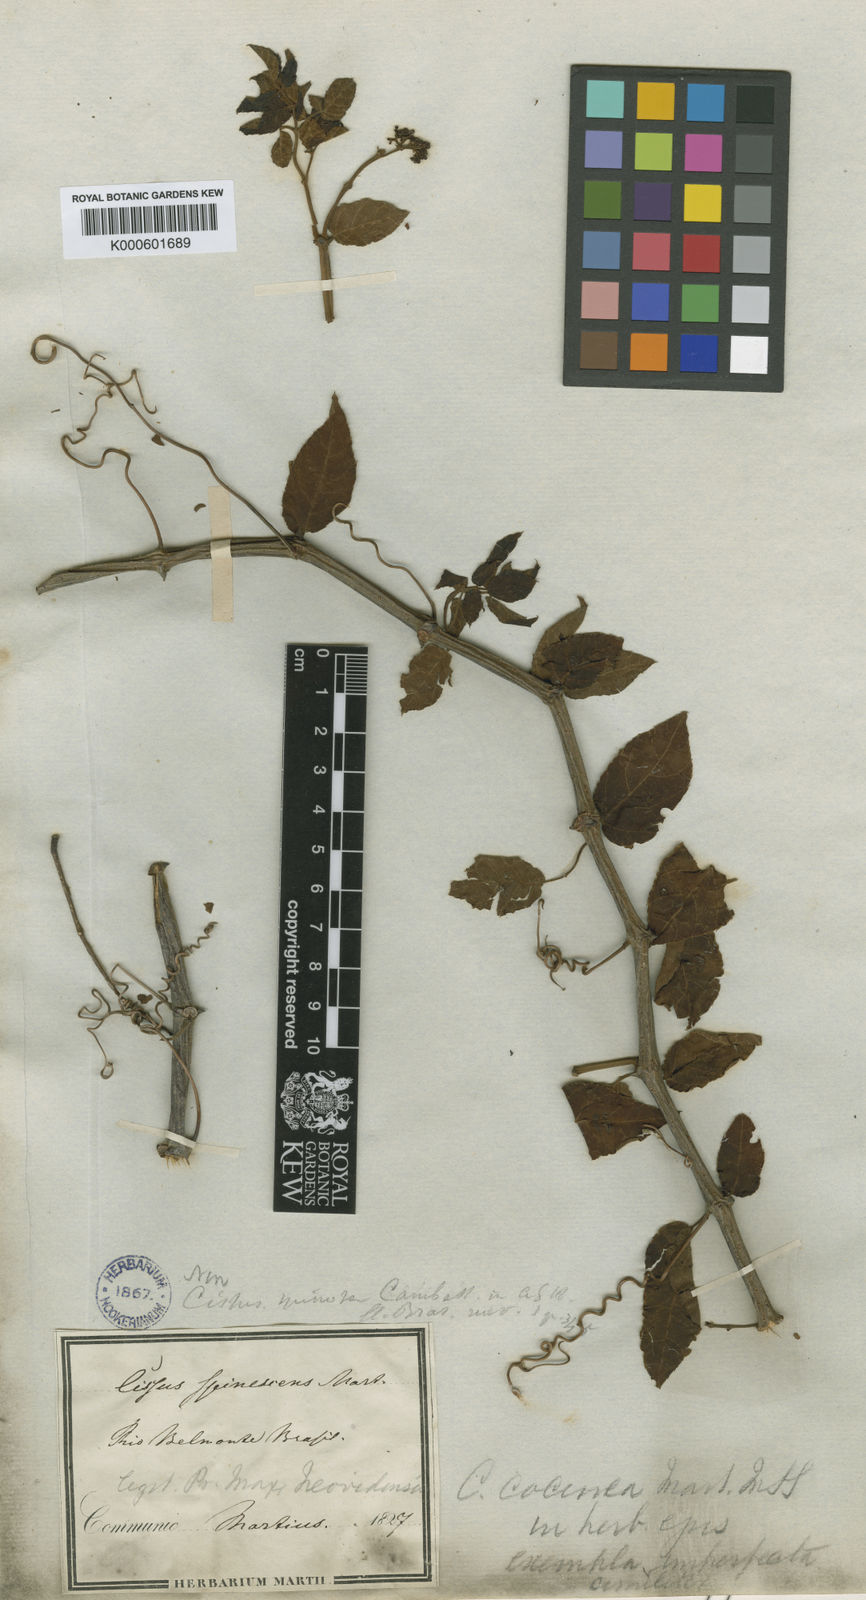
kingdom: Plantae
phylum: Tracheophyta
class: Magnoliopsida
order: Vitales
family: Vitaceae
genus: Cissus
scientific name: Cissus coccinea
